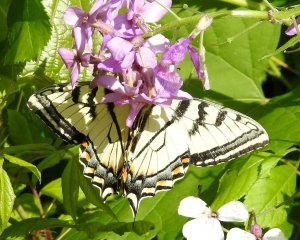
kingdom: Animalia
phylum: Arthropoda
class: Insecta
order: Lepidoptera
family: Papilionidae
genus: Pterourus
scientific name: Pterourus canadensis
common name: Canadian Tiger Swallowtail
